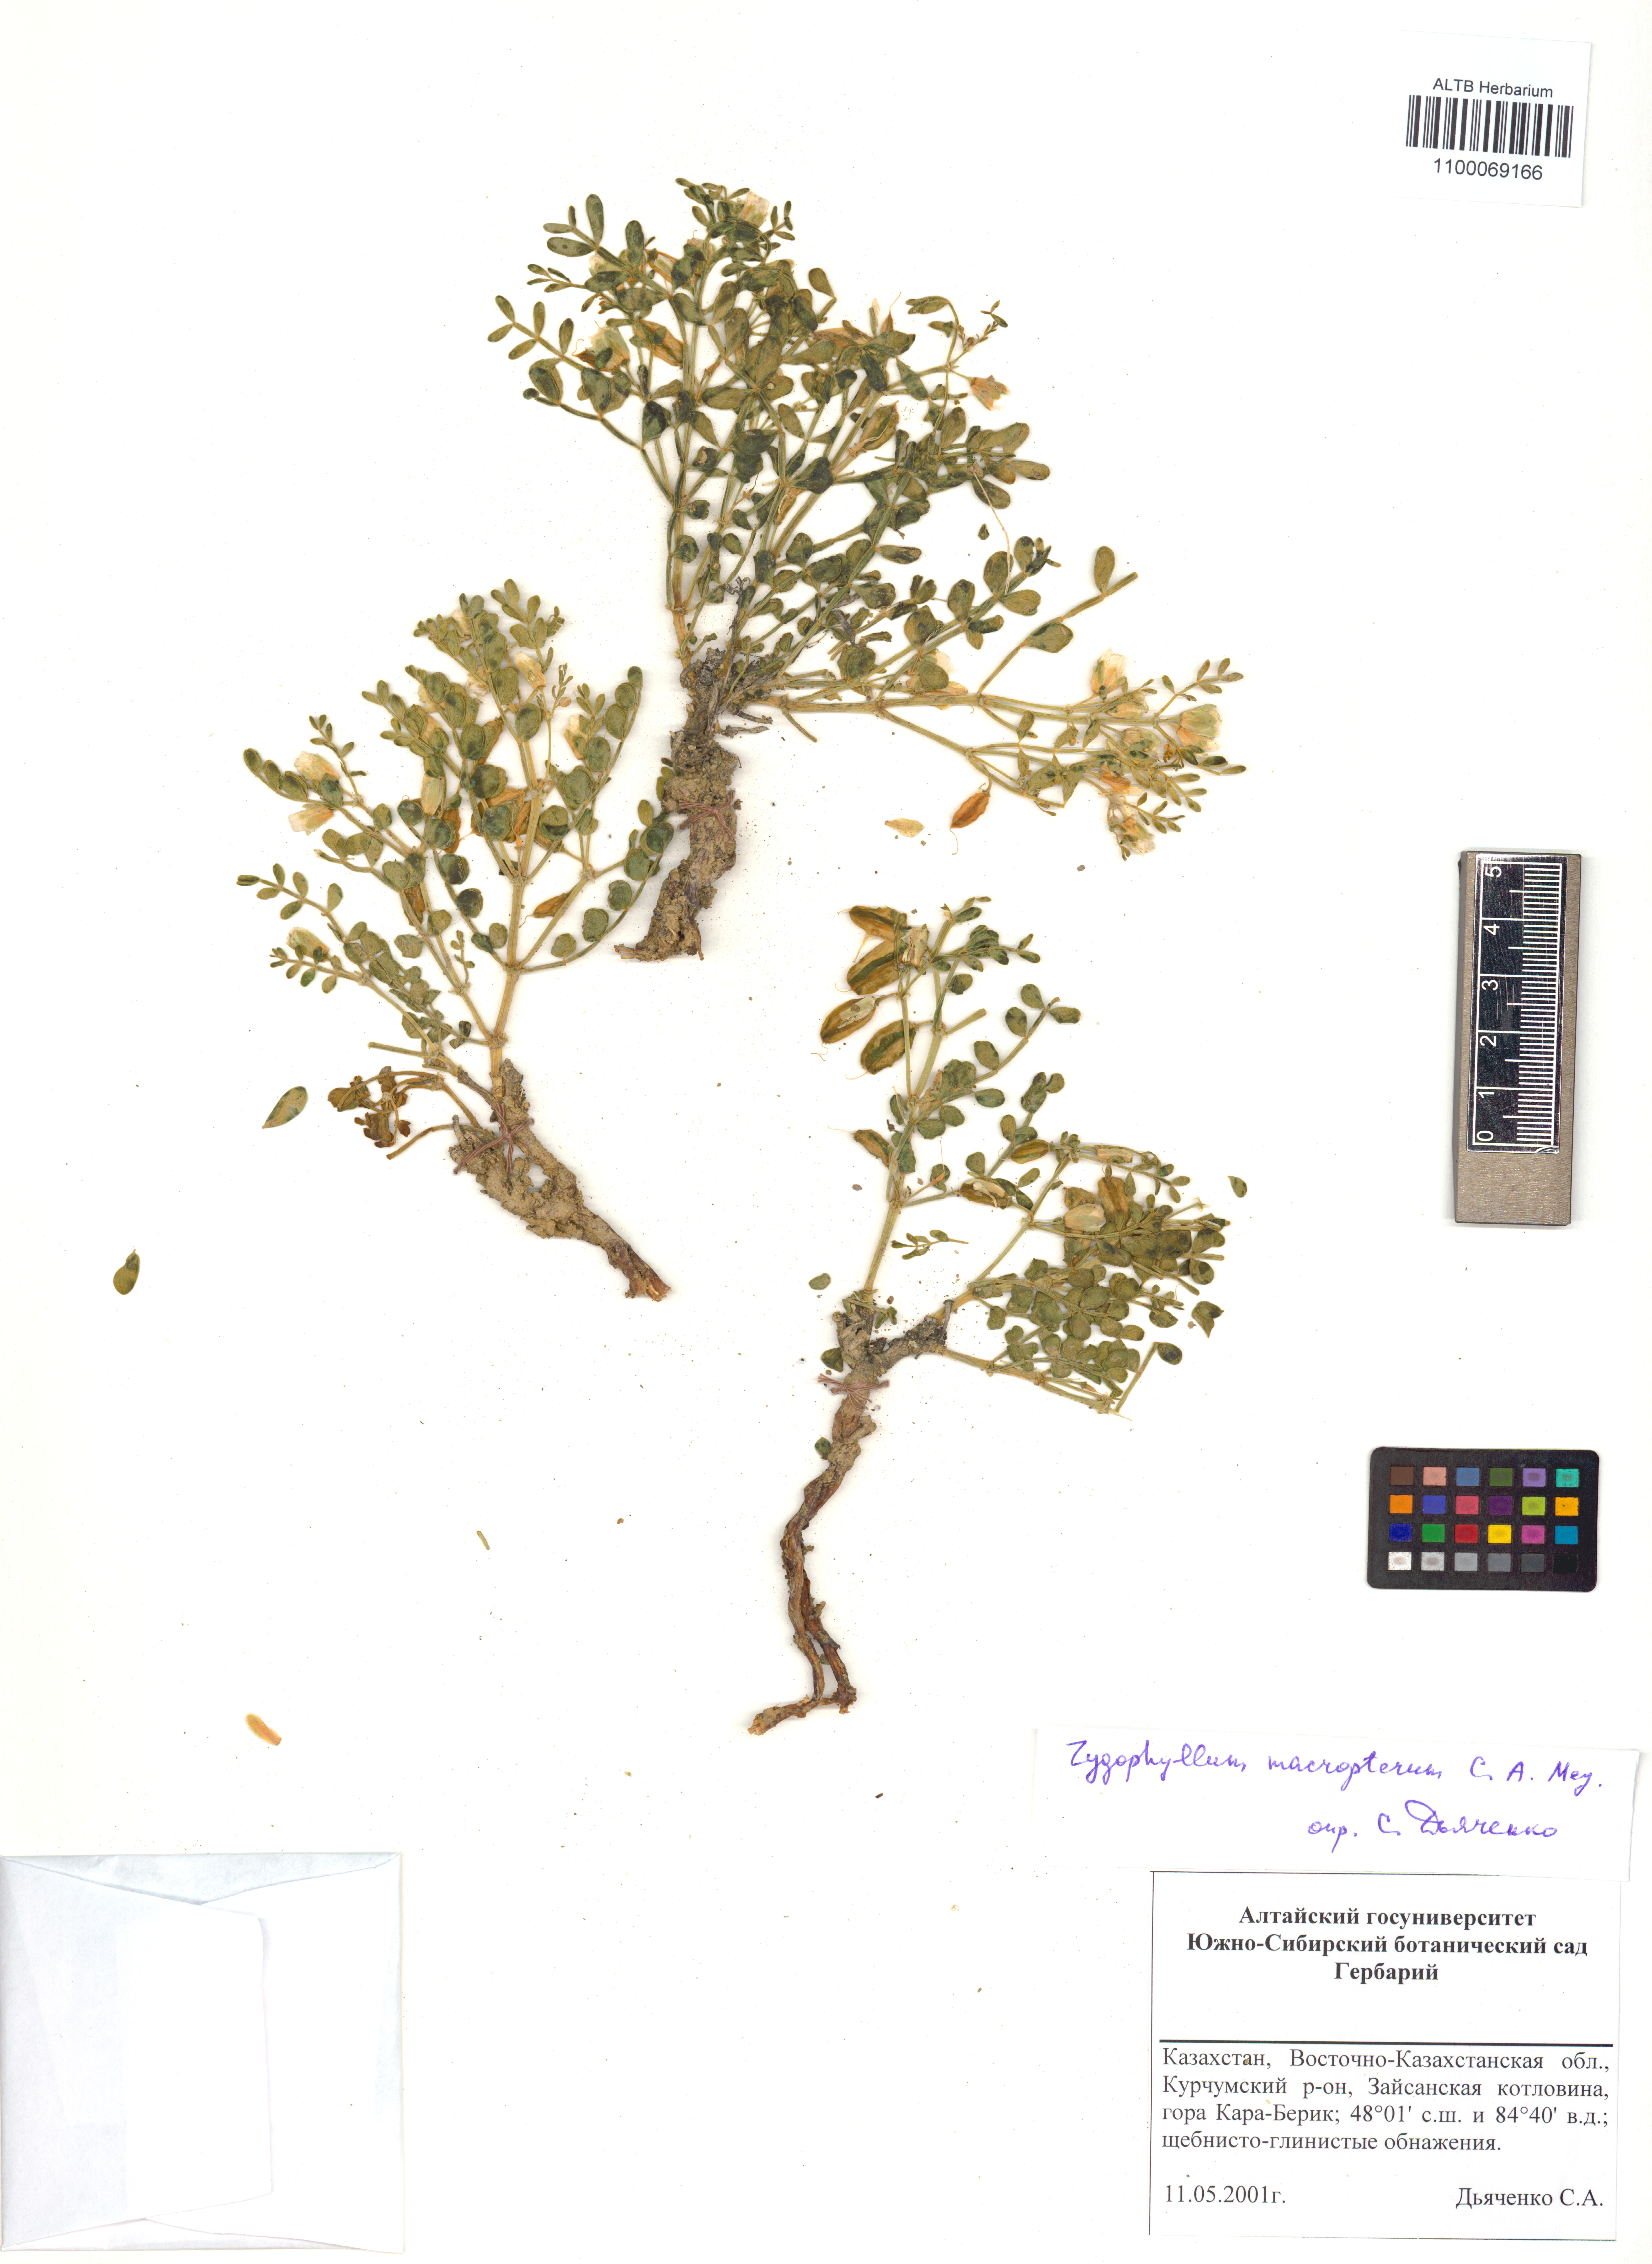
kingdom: Plantae
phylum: Tracheophyta
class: Magnoliopsida
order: Zygophyllales
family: Zygophyllaceae
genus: Zygophyllum
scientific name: Zygophyllum pinnatum
